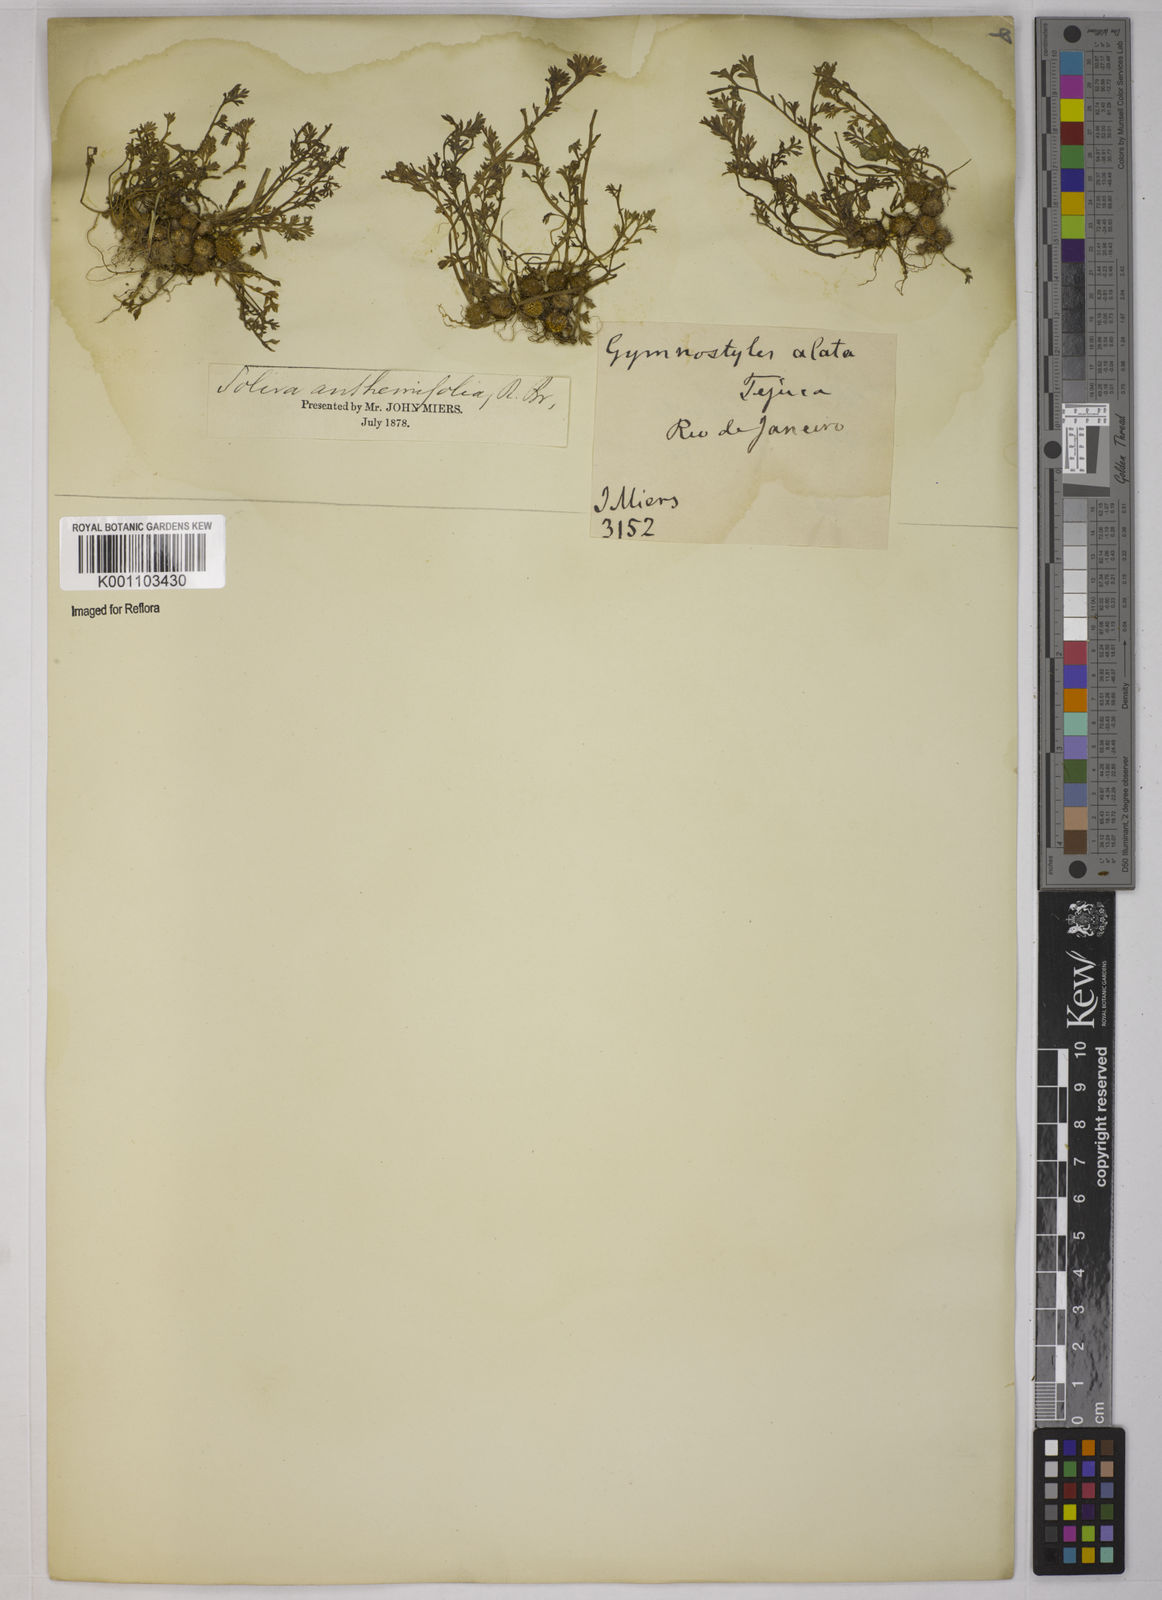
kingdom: Plantae
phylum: Tracheophyta
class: Magnoliopsida
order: Asterales
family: Asteraceae
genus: Soliva
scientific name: Soliva
